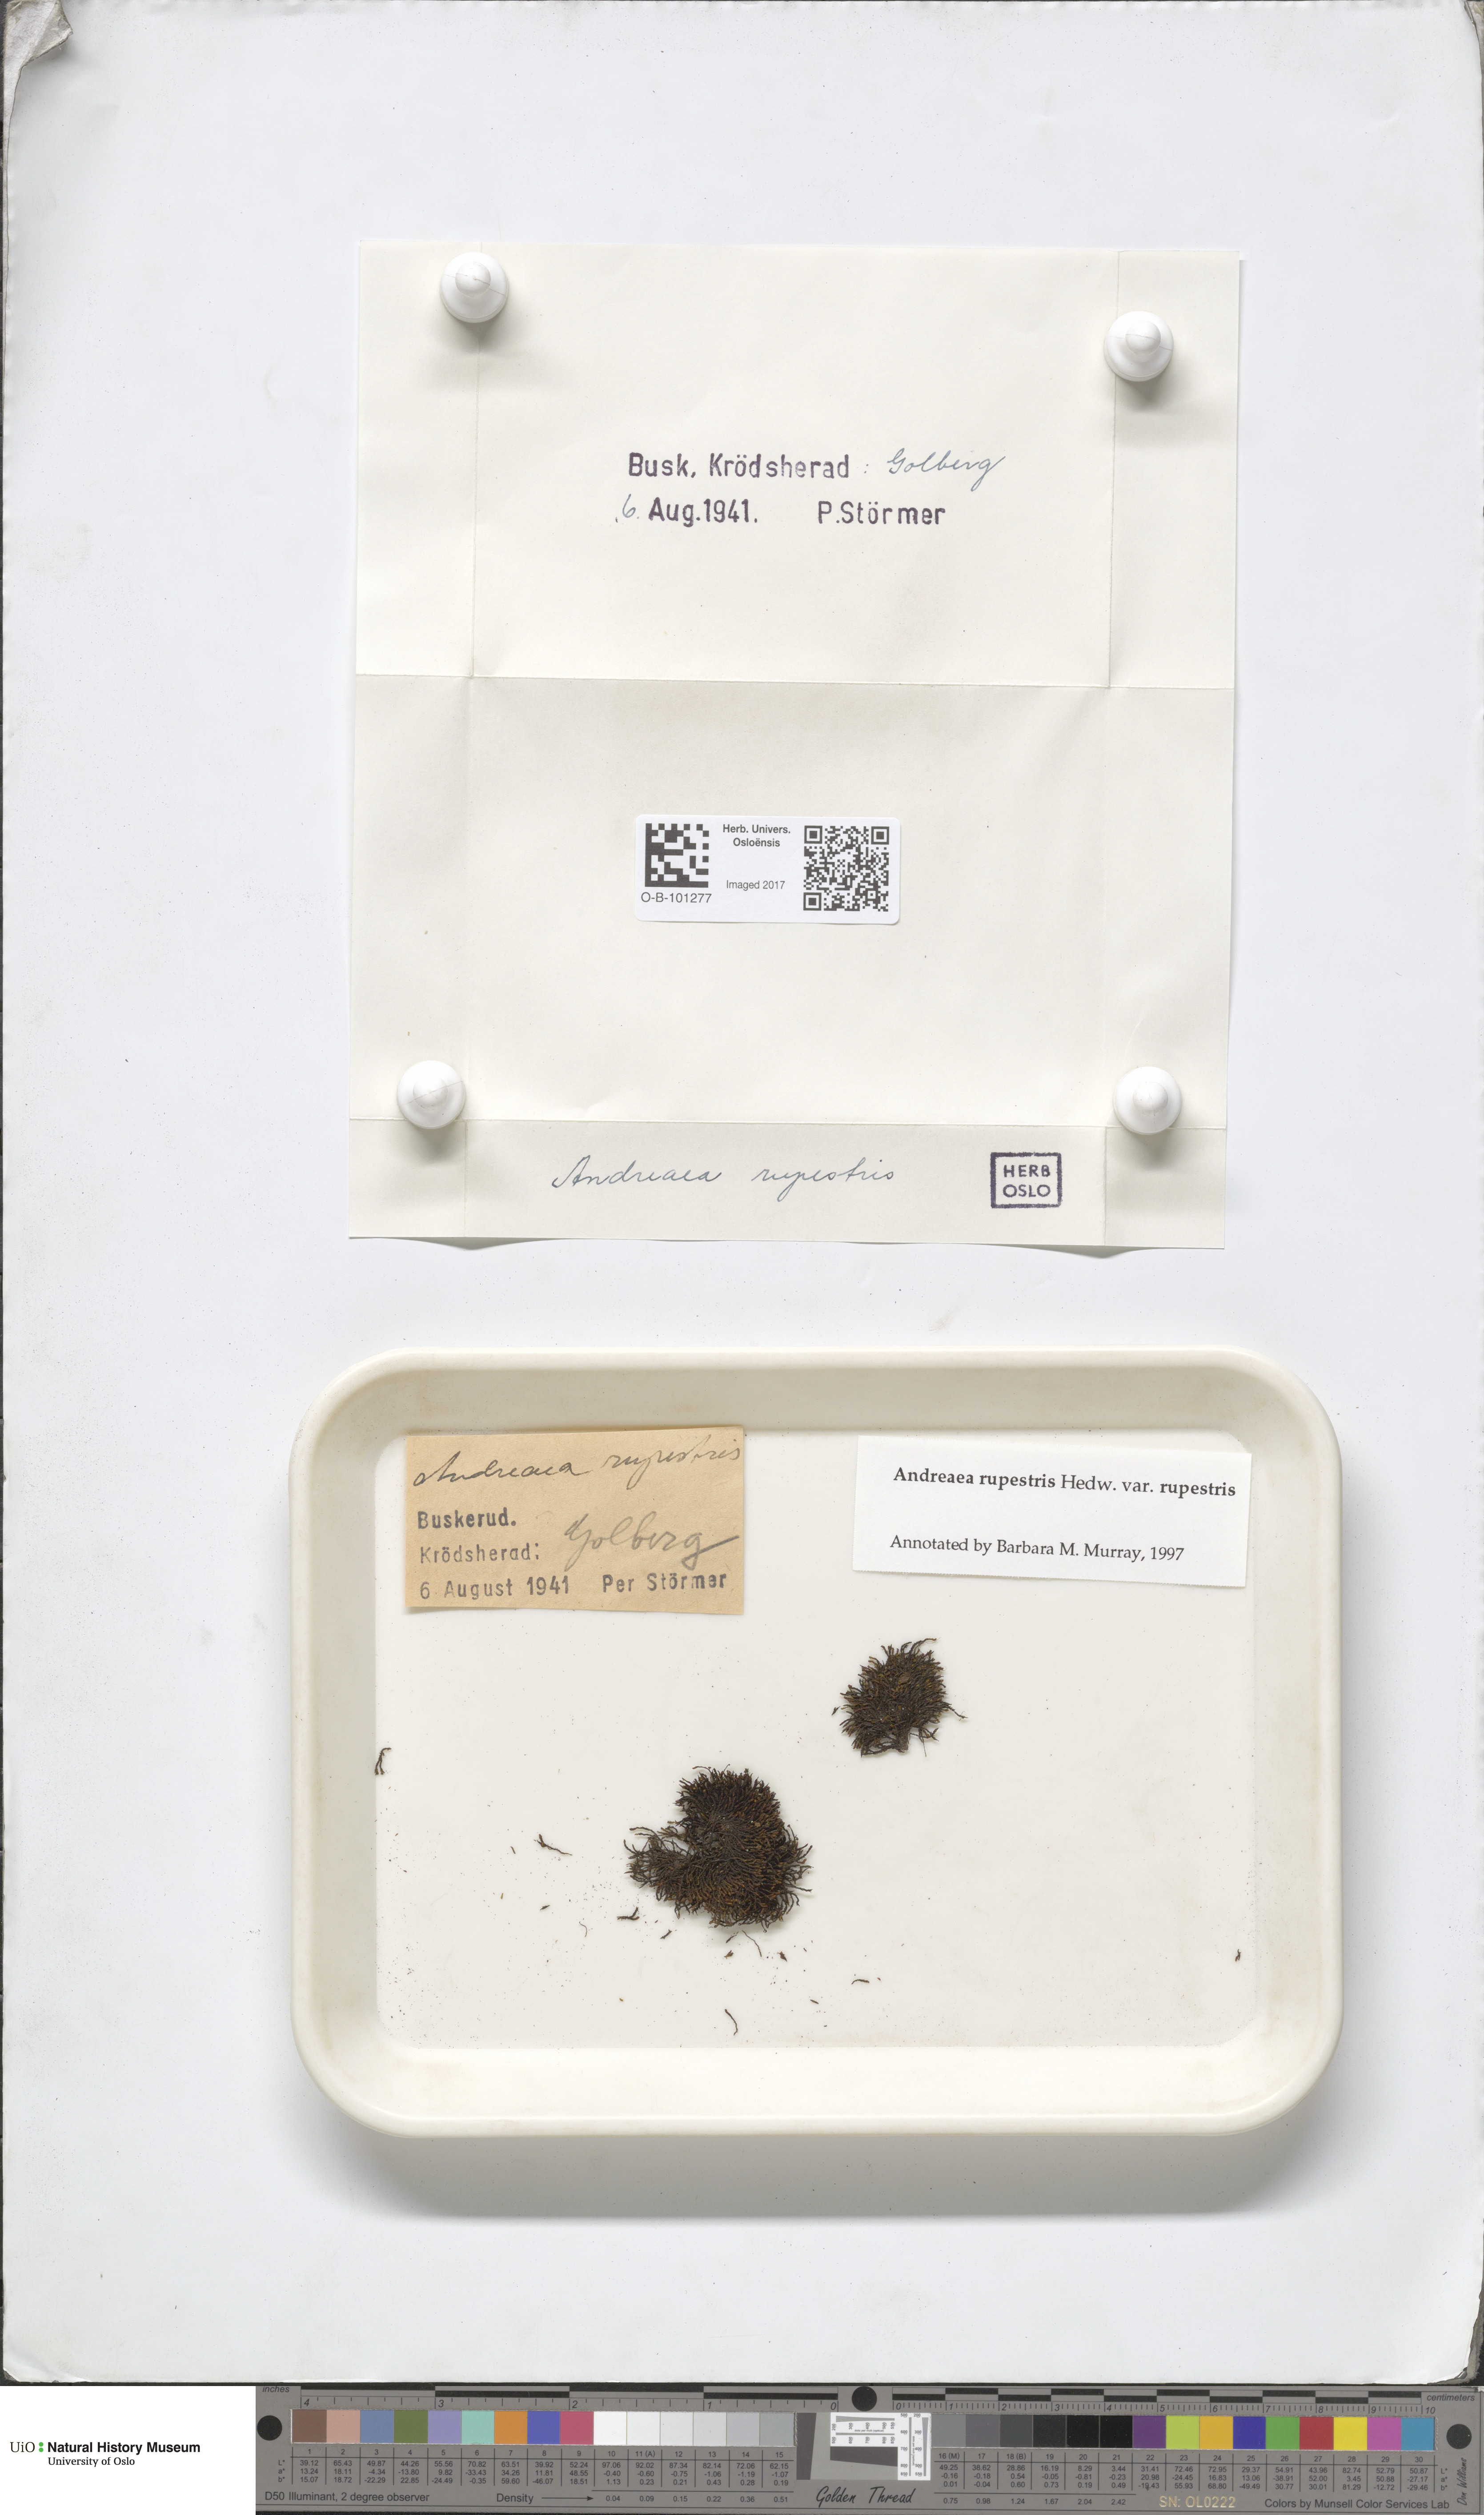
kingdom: Plantae
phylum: Bryophyta
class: Andreaeopsida
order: Andreaeales
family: Andreaeaceae
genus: Andreaea
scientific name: Andreaea rupestris
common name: Black rock moss
